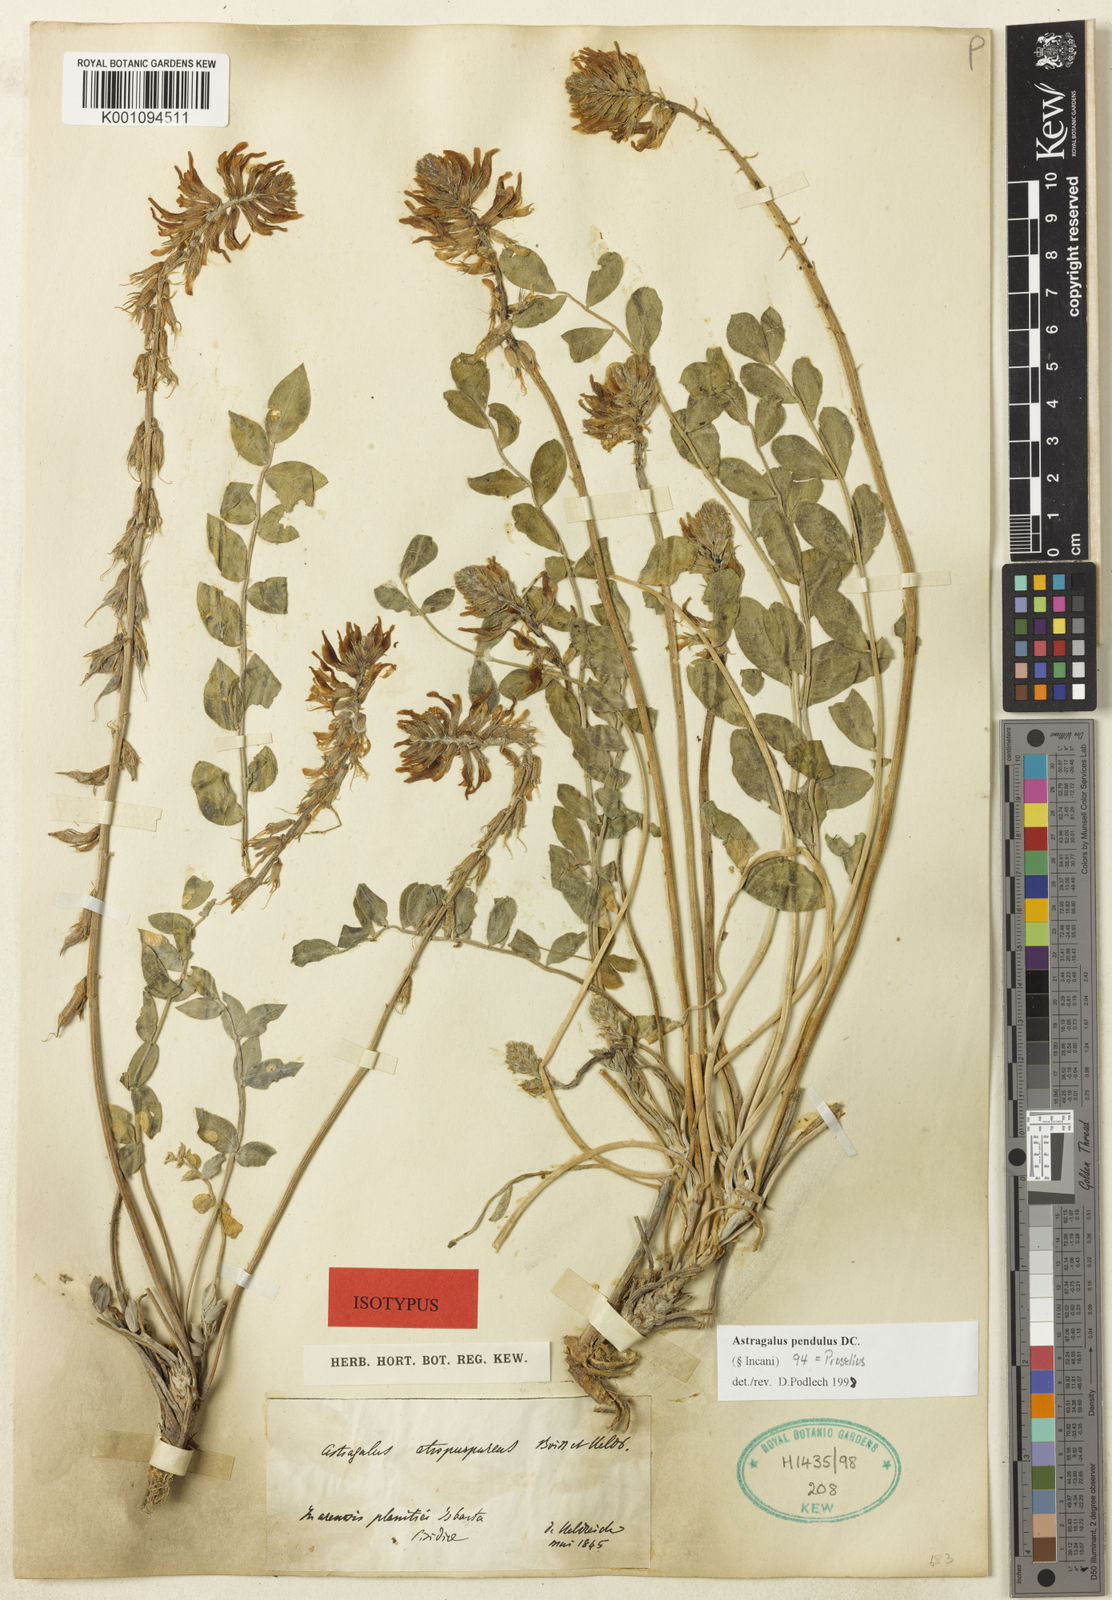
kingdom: Plantae
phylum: Tracheophyta
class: Magnoliopsida
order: Fabales
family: Fabaceae
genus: Astragalus
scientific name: Astragalus
